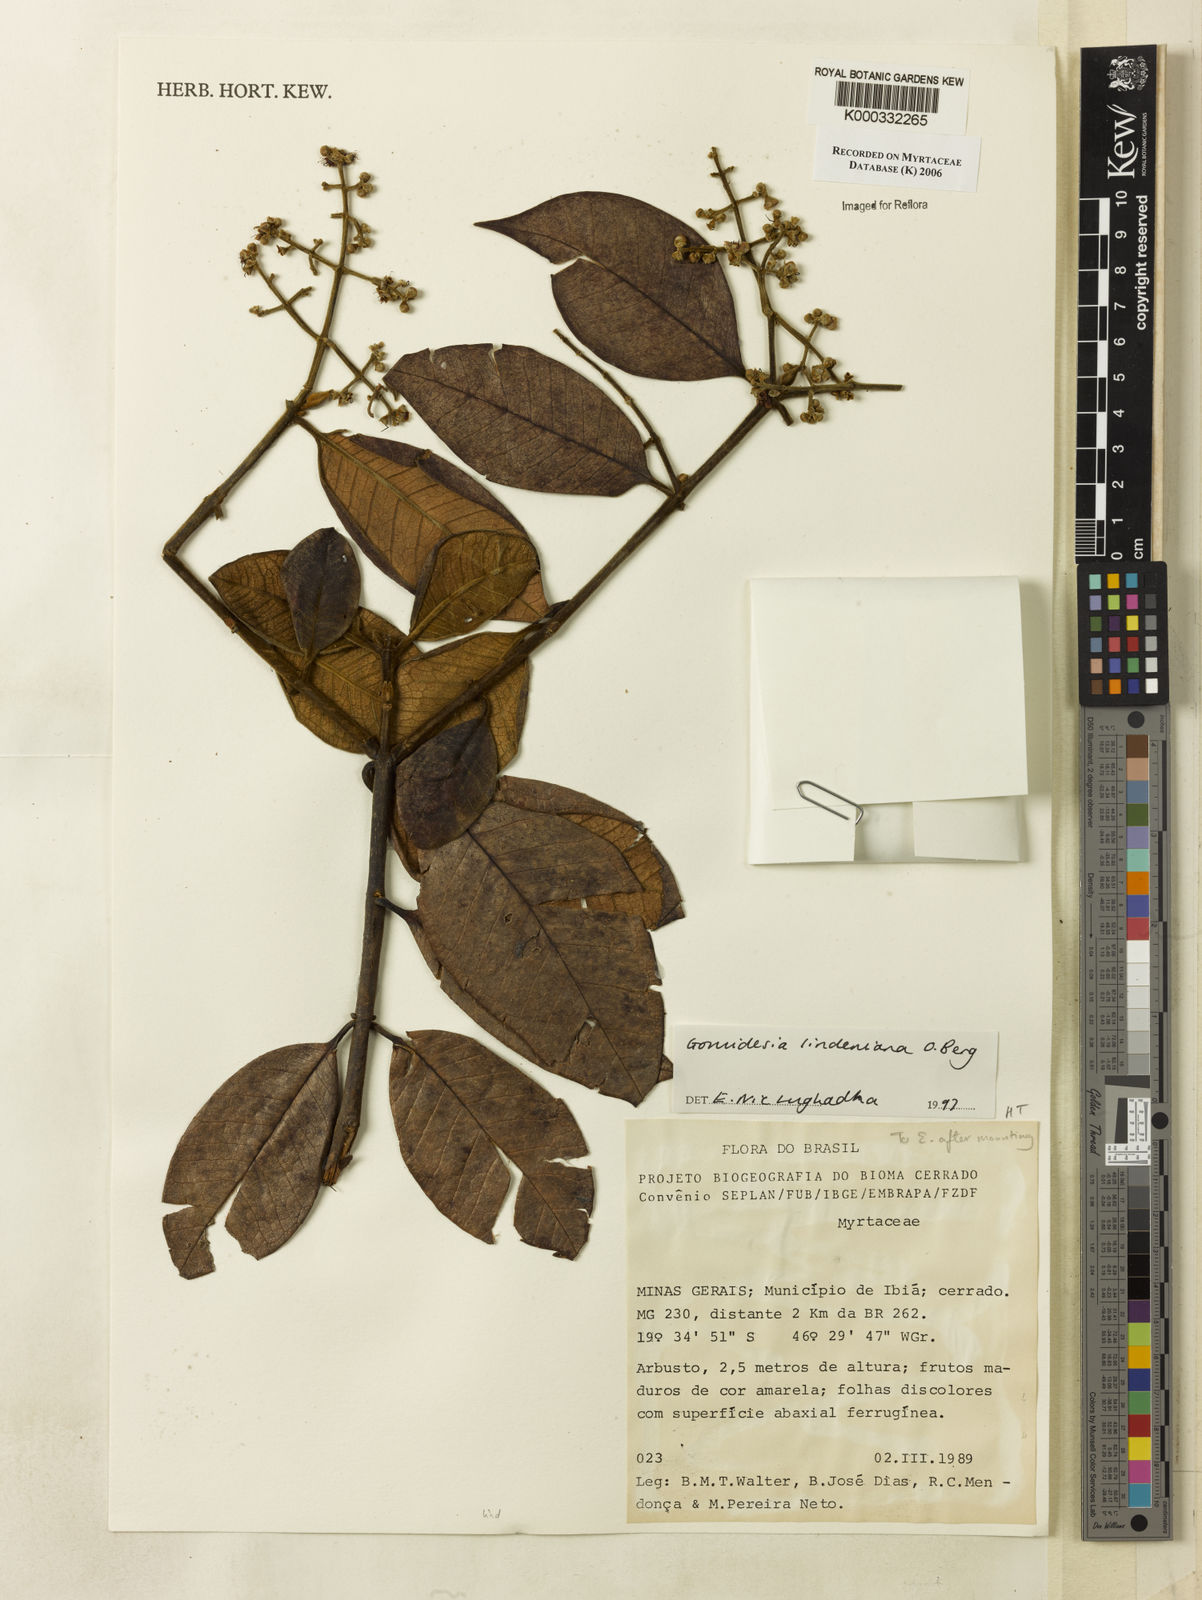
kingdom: Plantae
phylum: Tracheophyta
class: Magnoliopsida
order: Myrtales
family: Myrtaceae
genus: Myrcia
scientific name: Myrcia fenzliana
